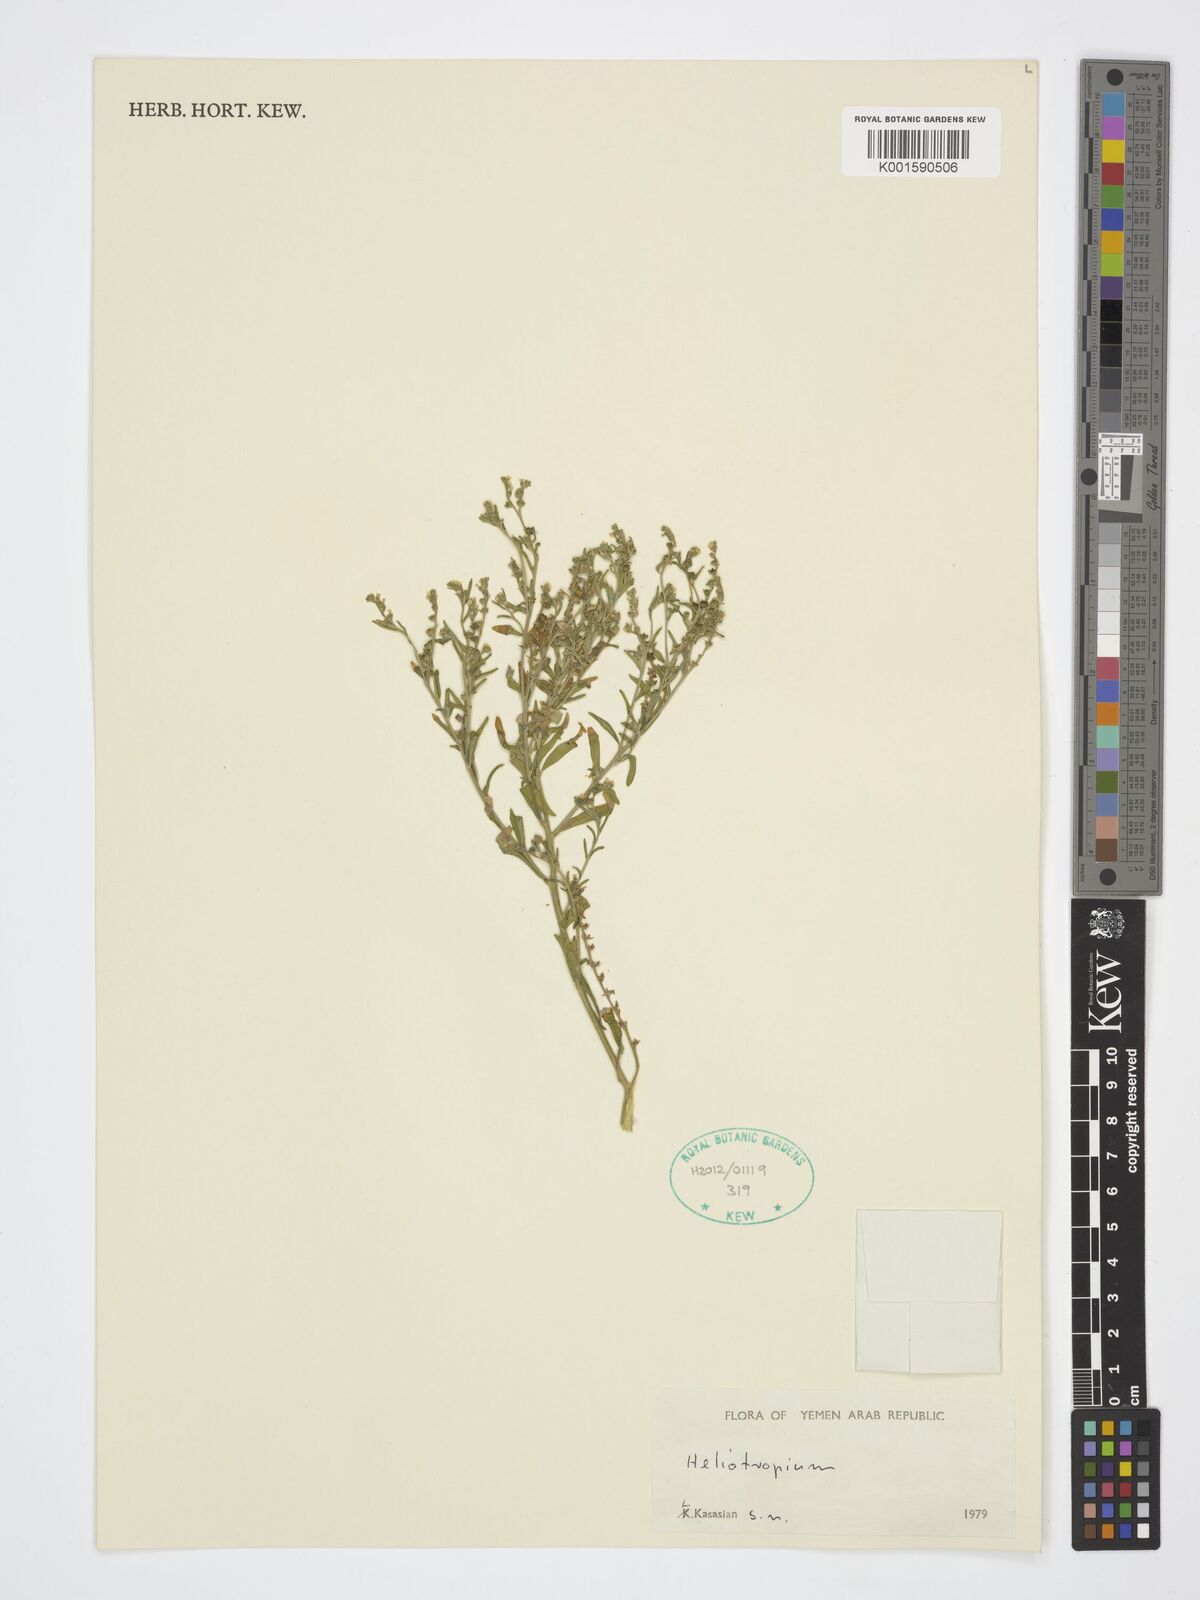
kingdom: Plantae
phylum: Tracheophyta
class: Magnoliopsida
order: Boraginales
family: Heliotropiaceae
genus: Heliotropium
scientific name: Heliotropium
